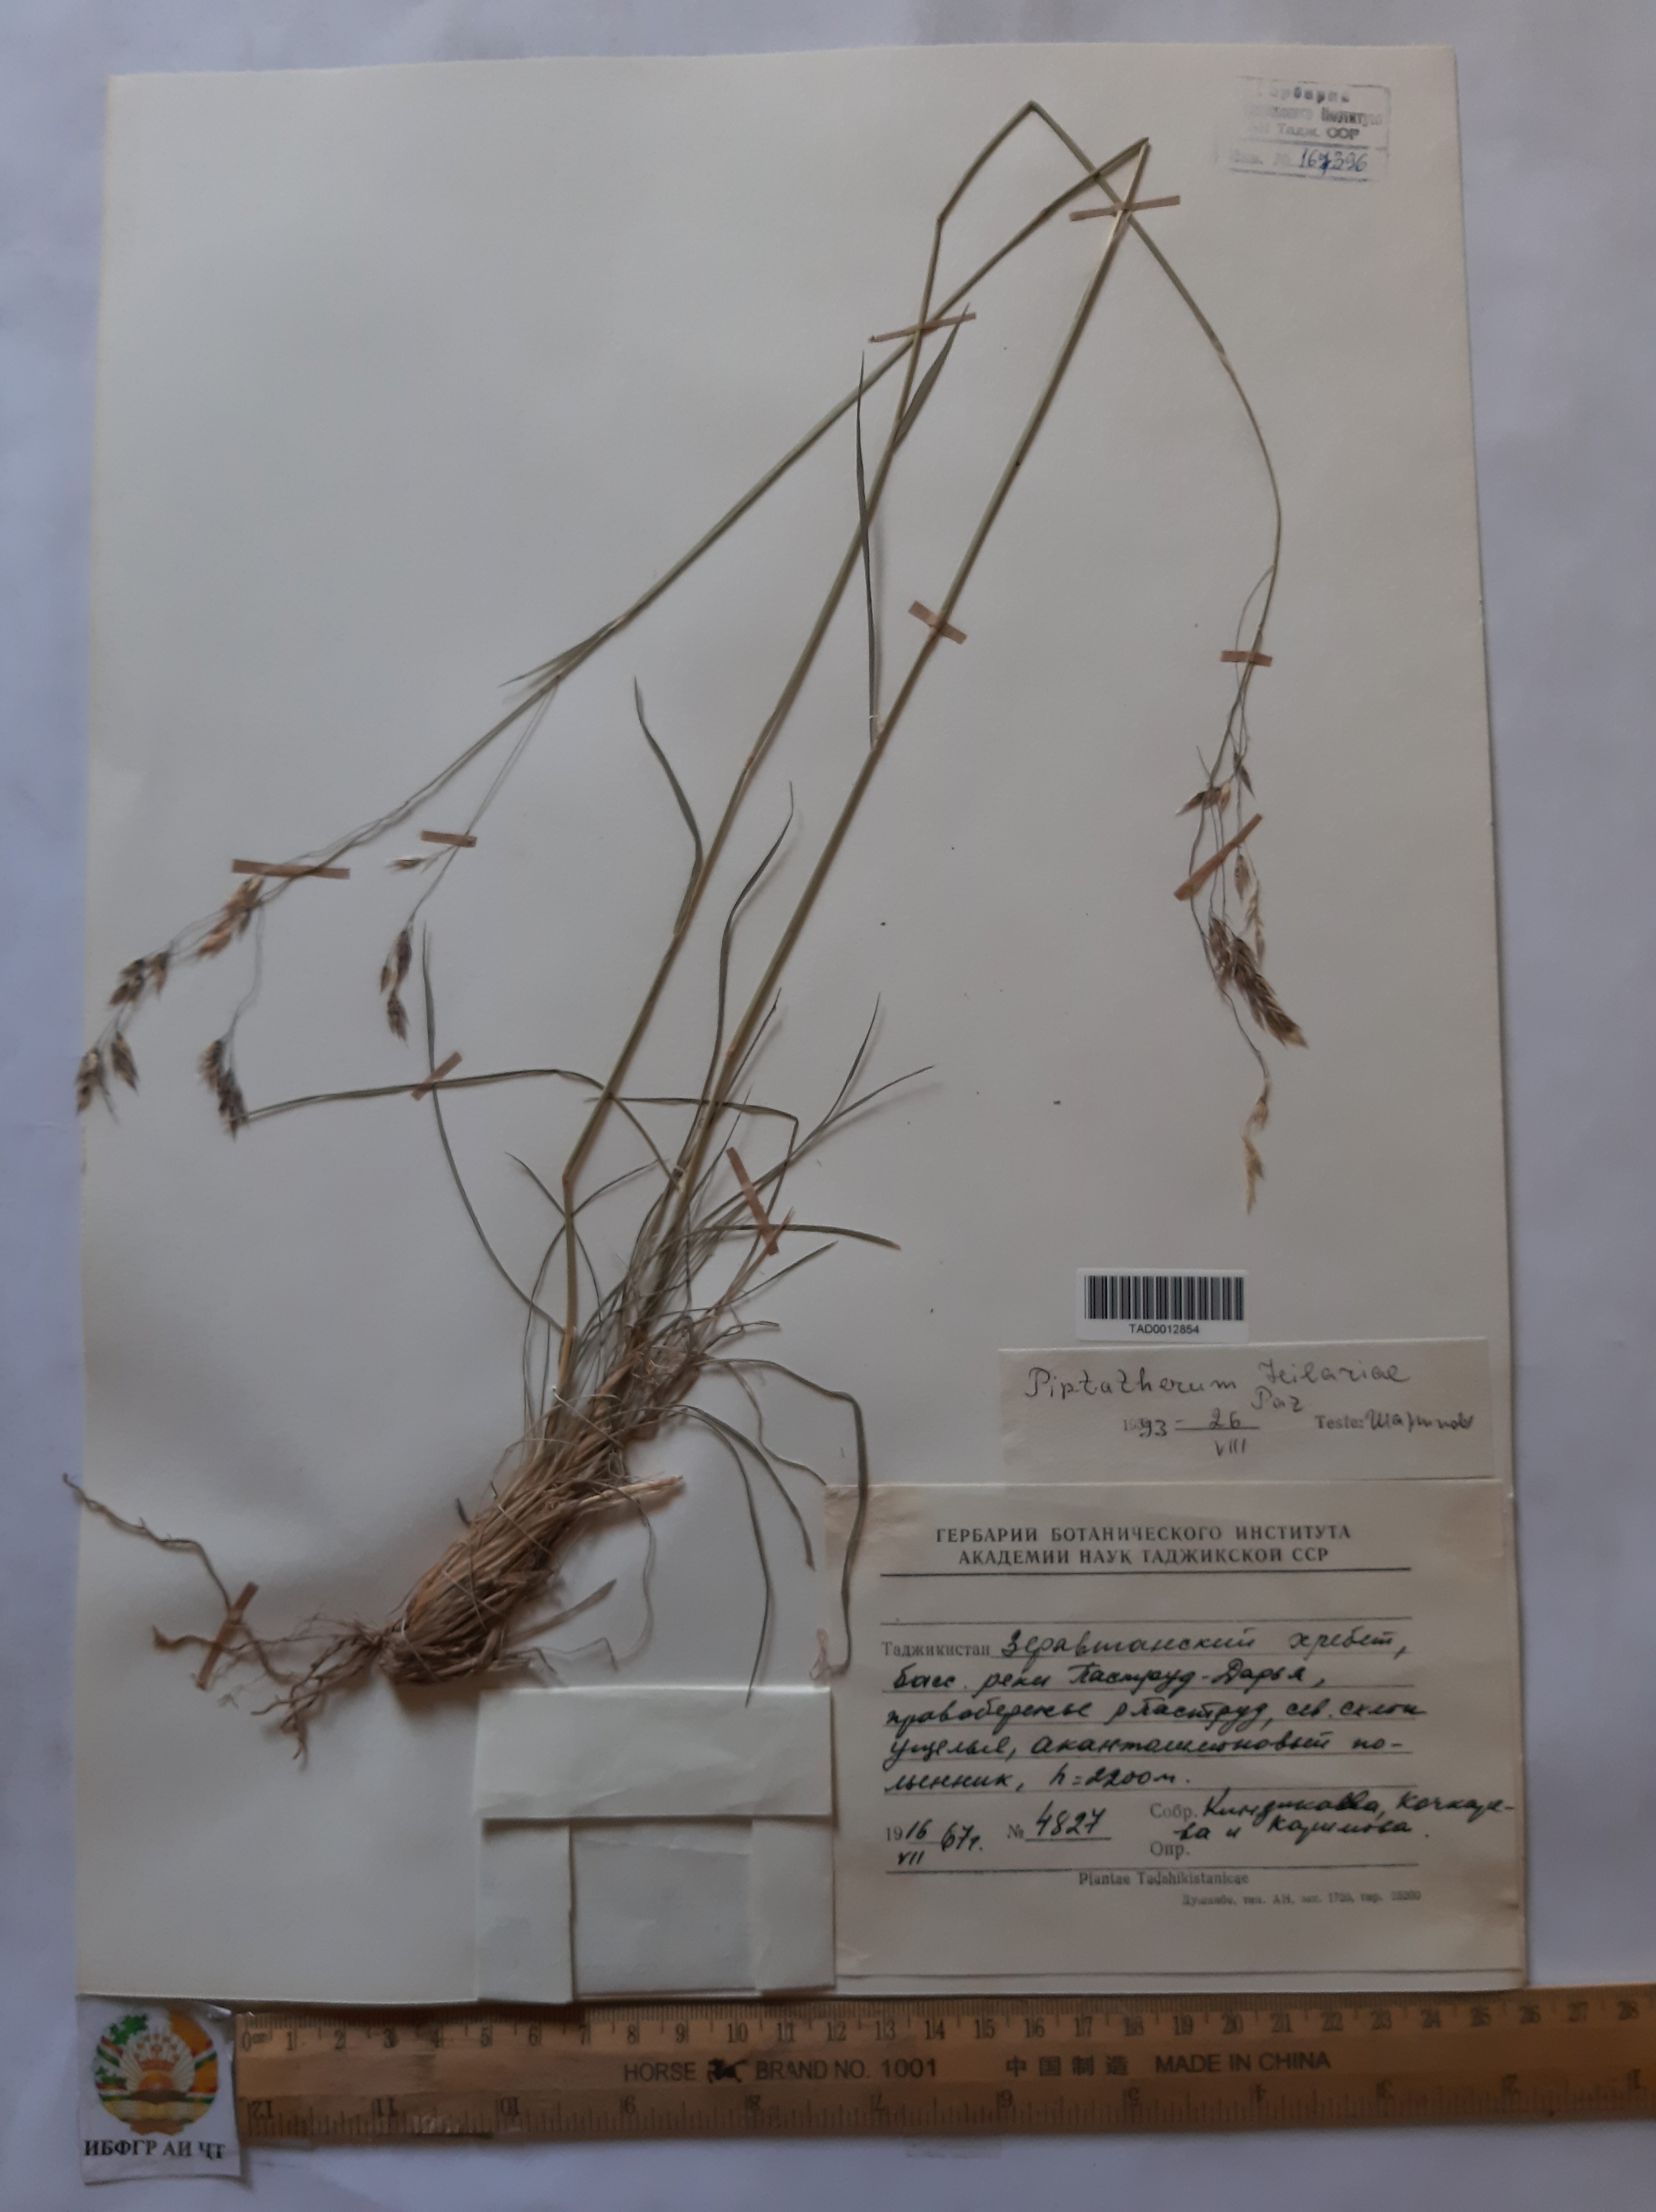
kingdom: Plantae
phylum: Tracheophyta
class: Liliopsida
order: Poales
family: Poaceae
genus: Piptatherum
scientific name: Piptatherum hilariae
